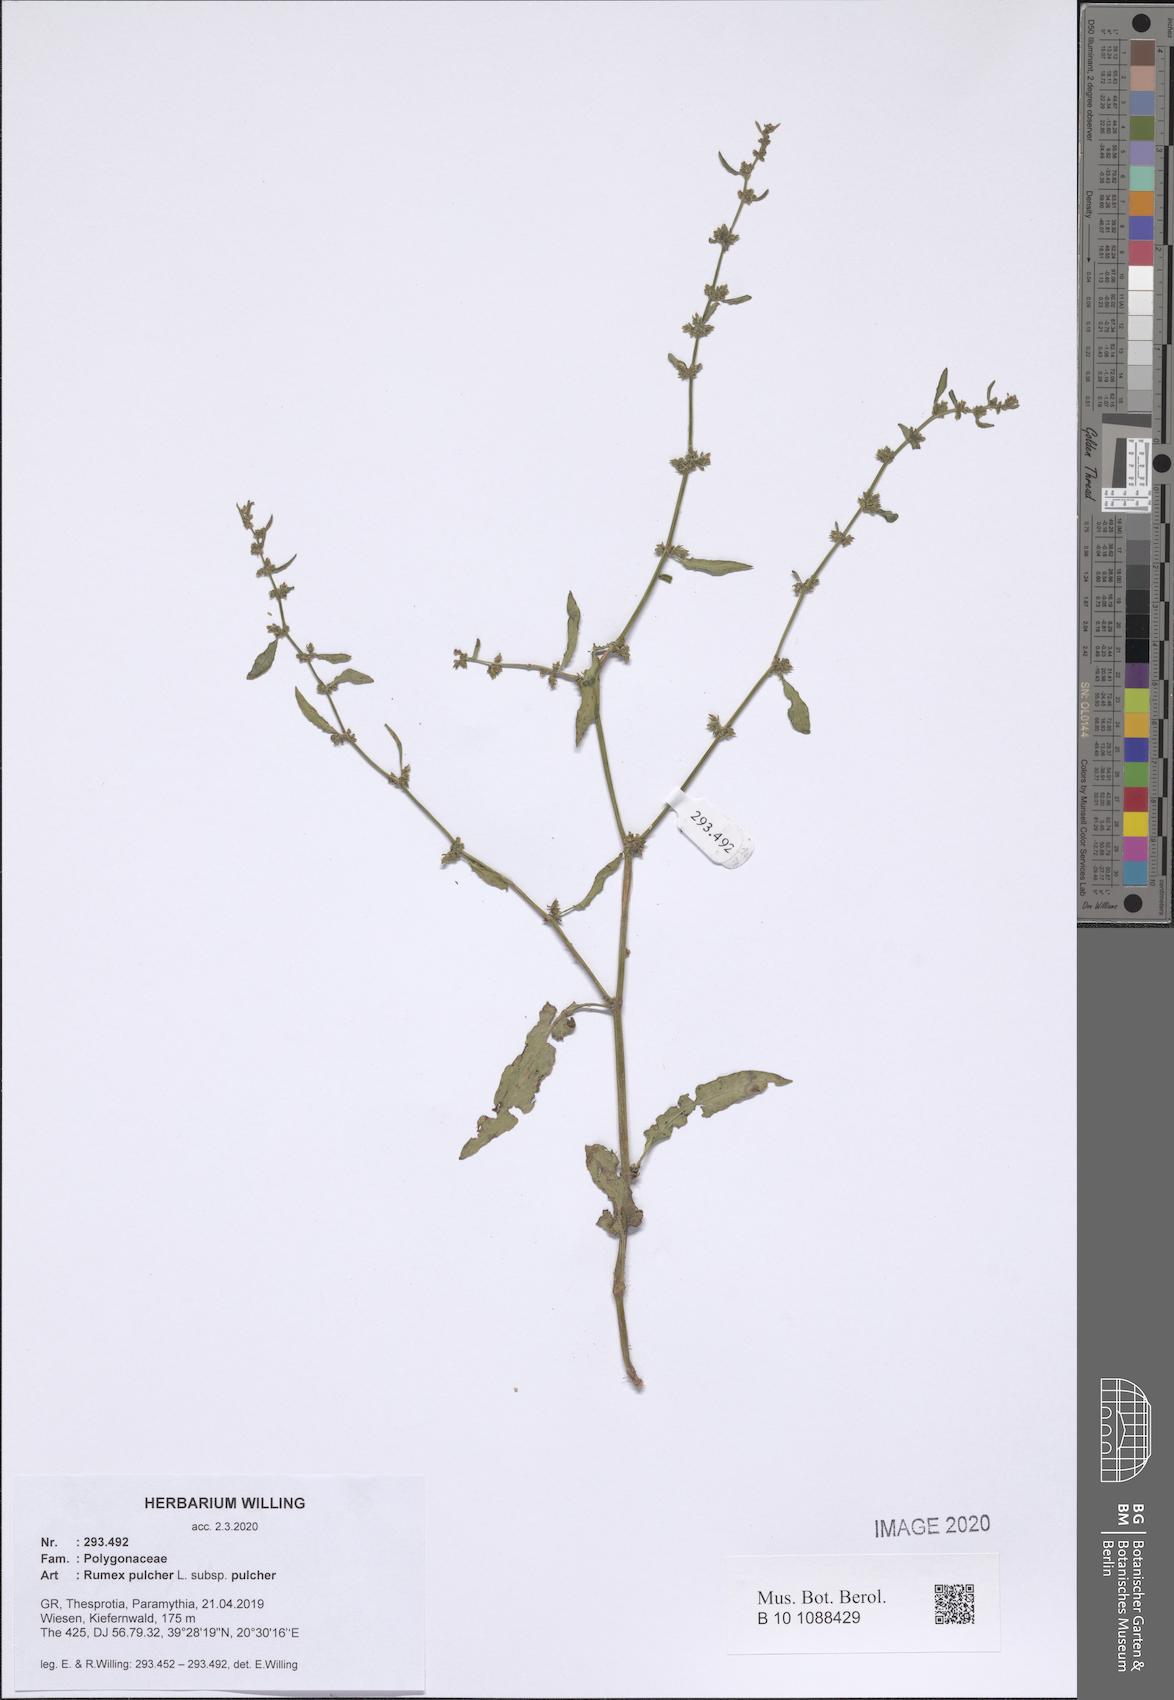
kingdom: Plantae
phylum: Tracheophyta
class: Magnoliopsida
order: Caryophyllales
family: Polygonaceae
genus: Rumex
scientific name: Rumex pulcher
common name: Fiddle dock
